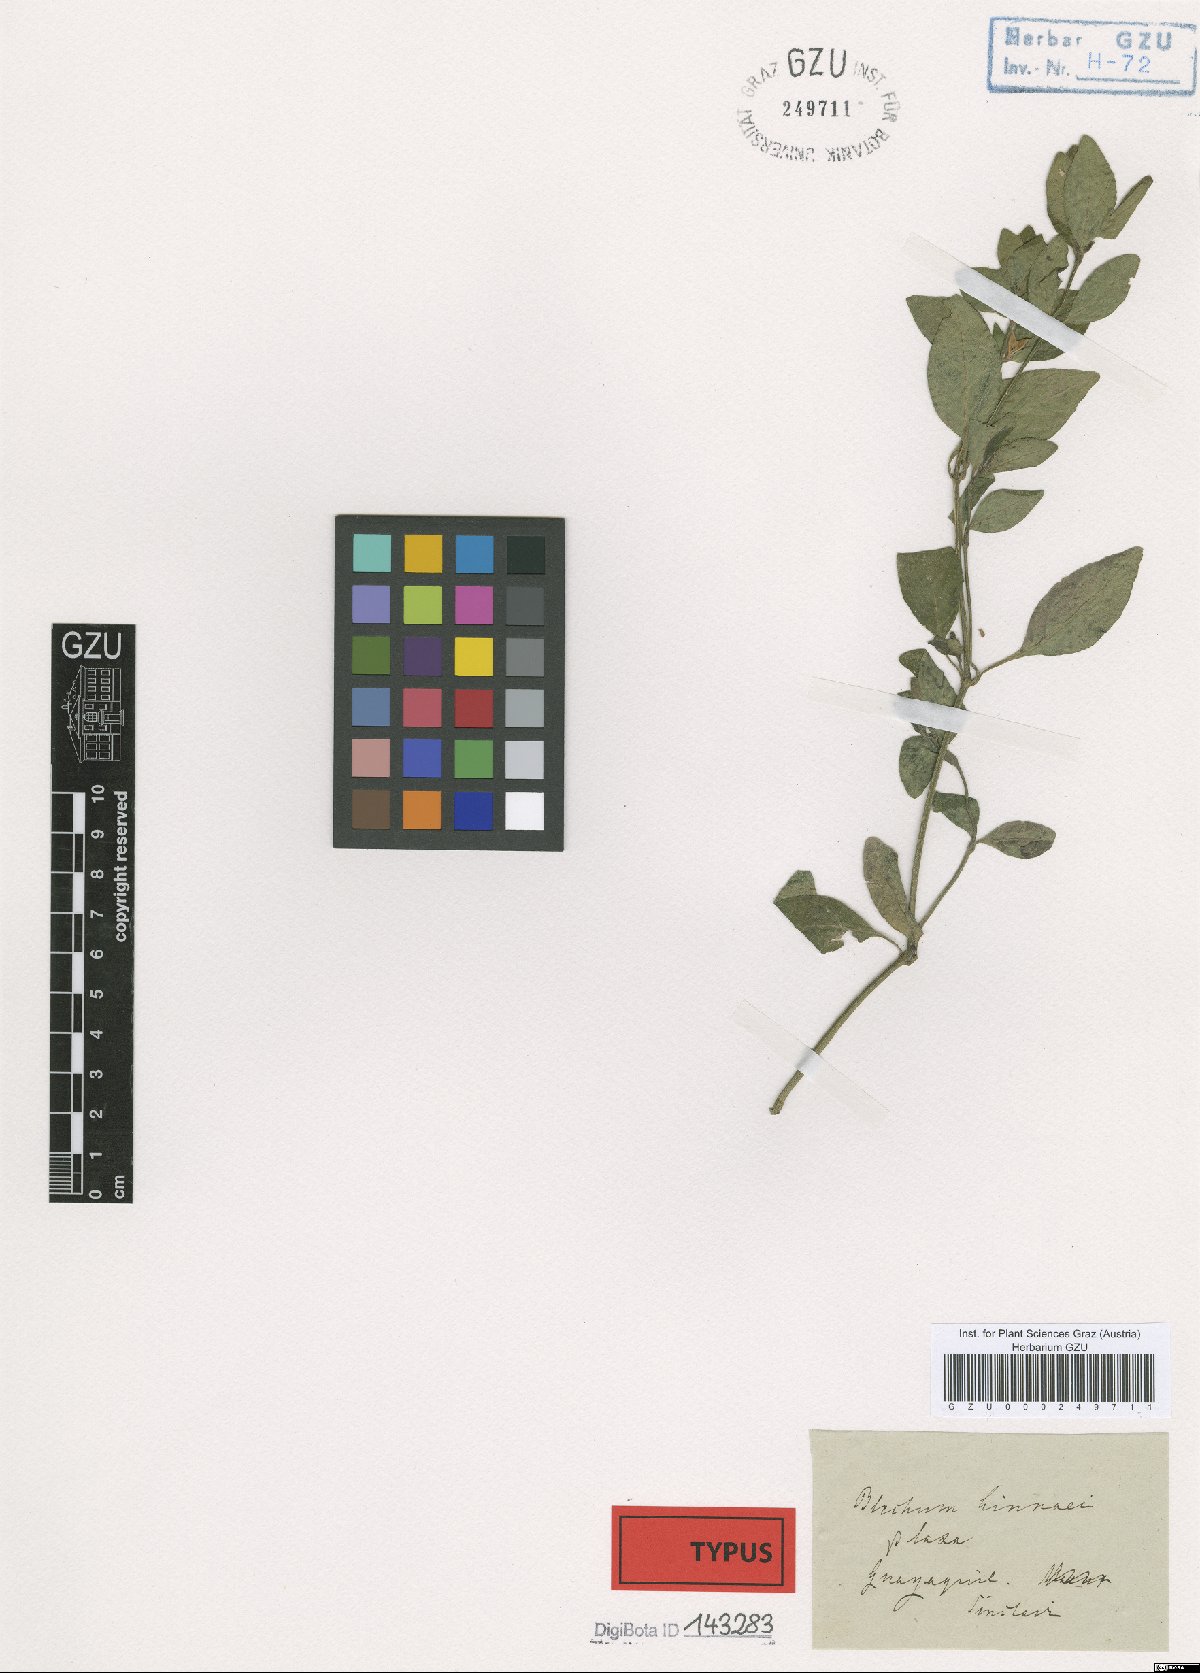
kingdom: Plantae
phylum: Tracheophyta
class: Magnoliopsida
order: Lamiales
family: Acanthaceae
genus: Ruellia
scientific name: Ruellia blechum
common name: Browne's blechum
